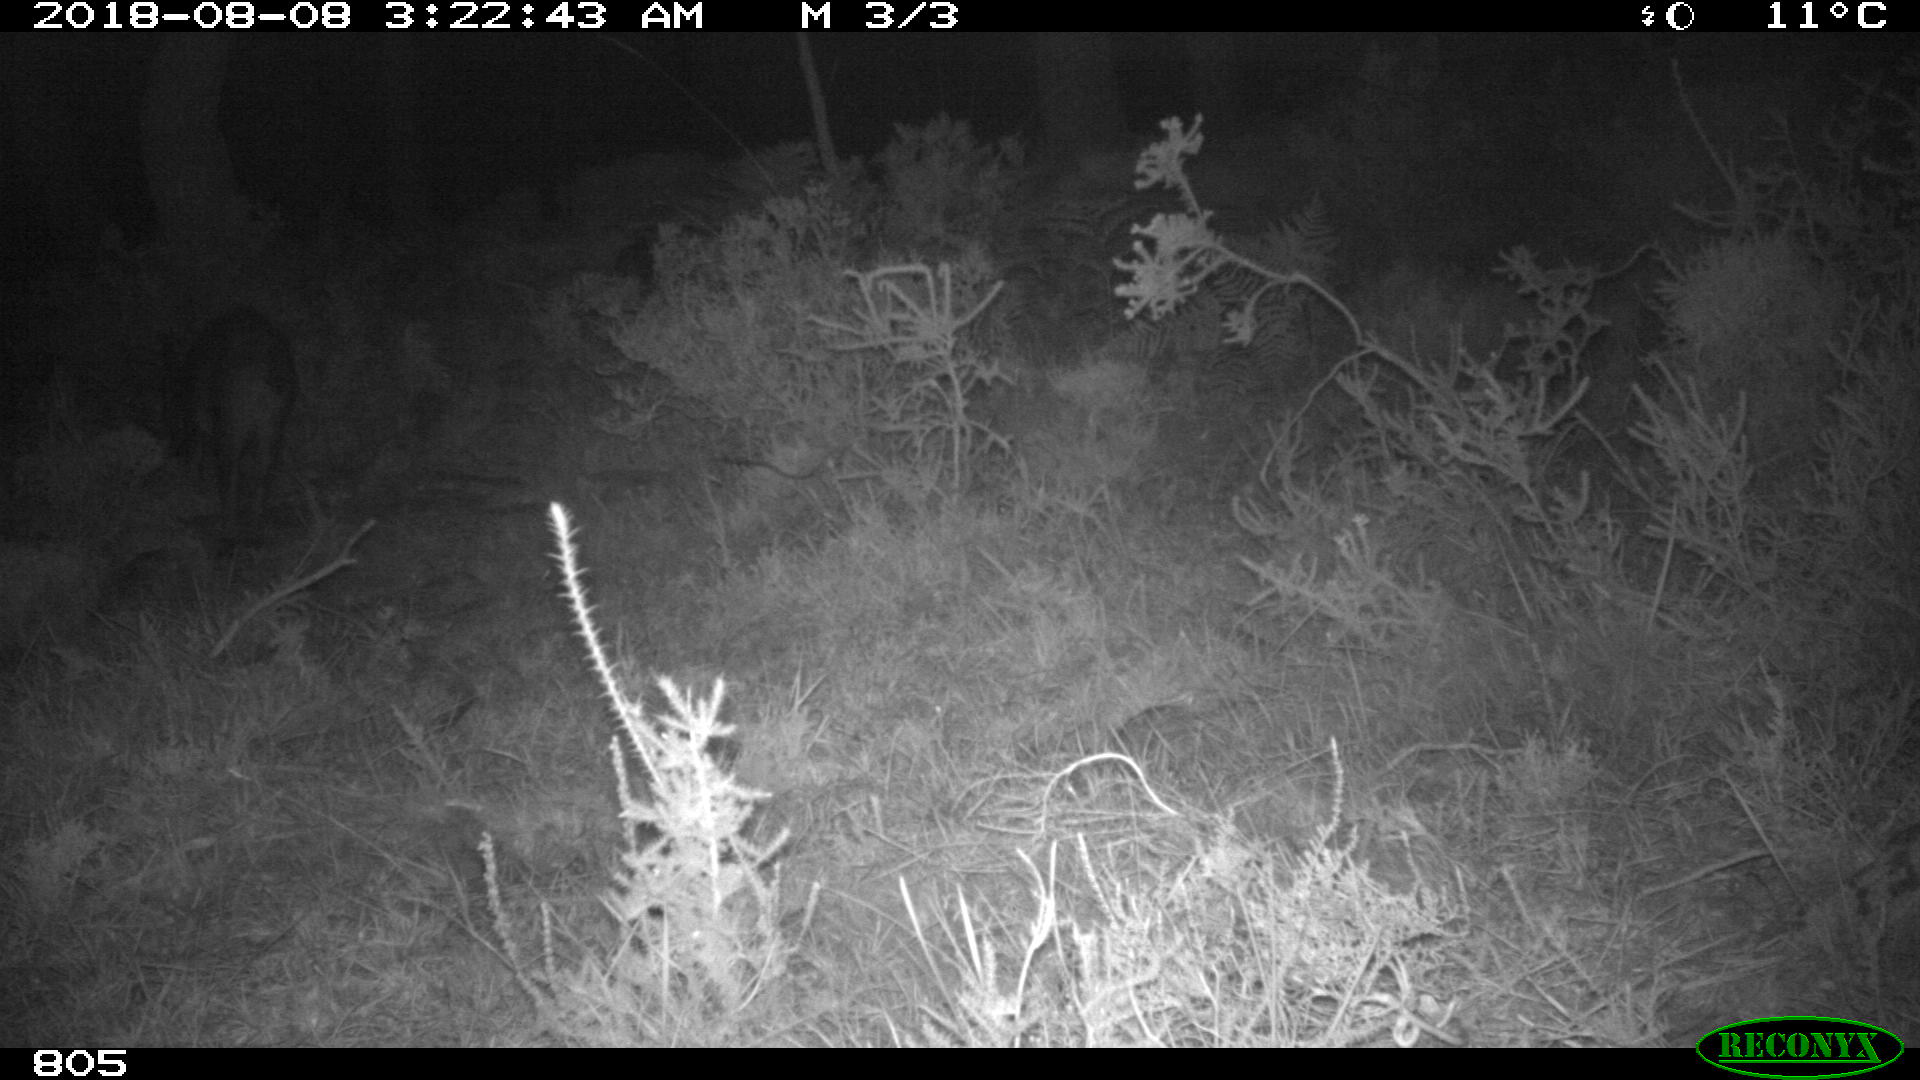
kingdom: Animalia
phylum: Chordata
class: Mammalia
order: Artiodactyla
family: Bovidae
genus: Bos
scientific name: Bos taurus
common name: Domesticated cattle
